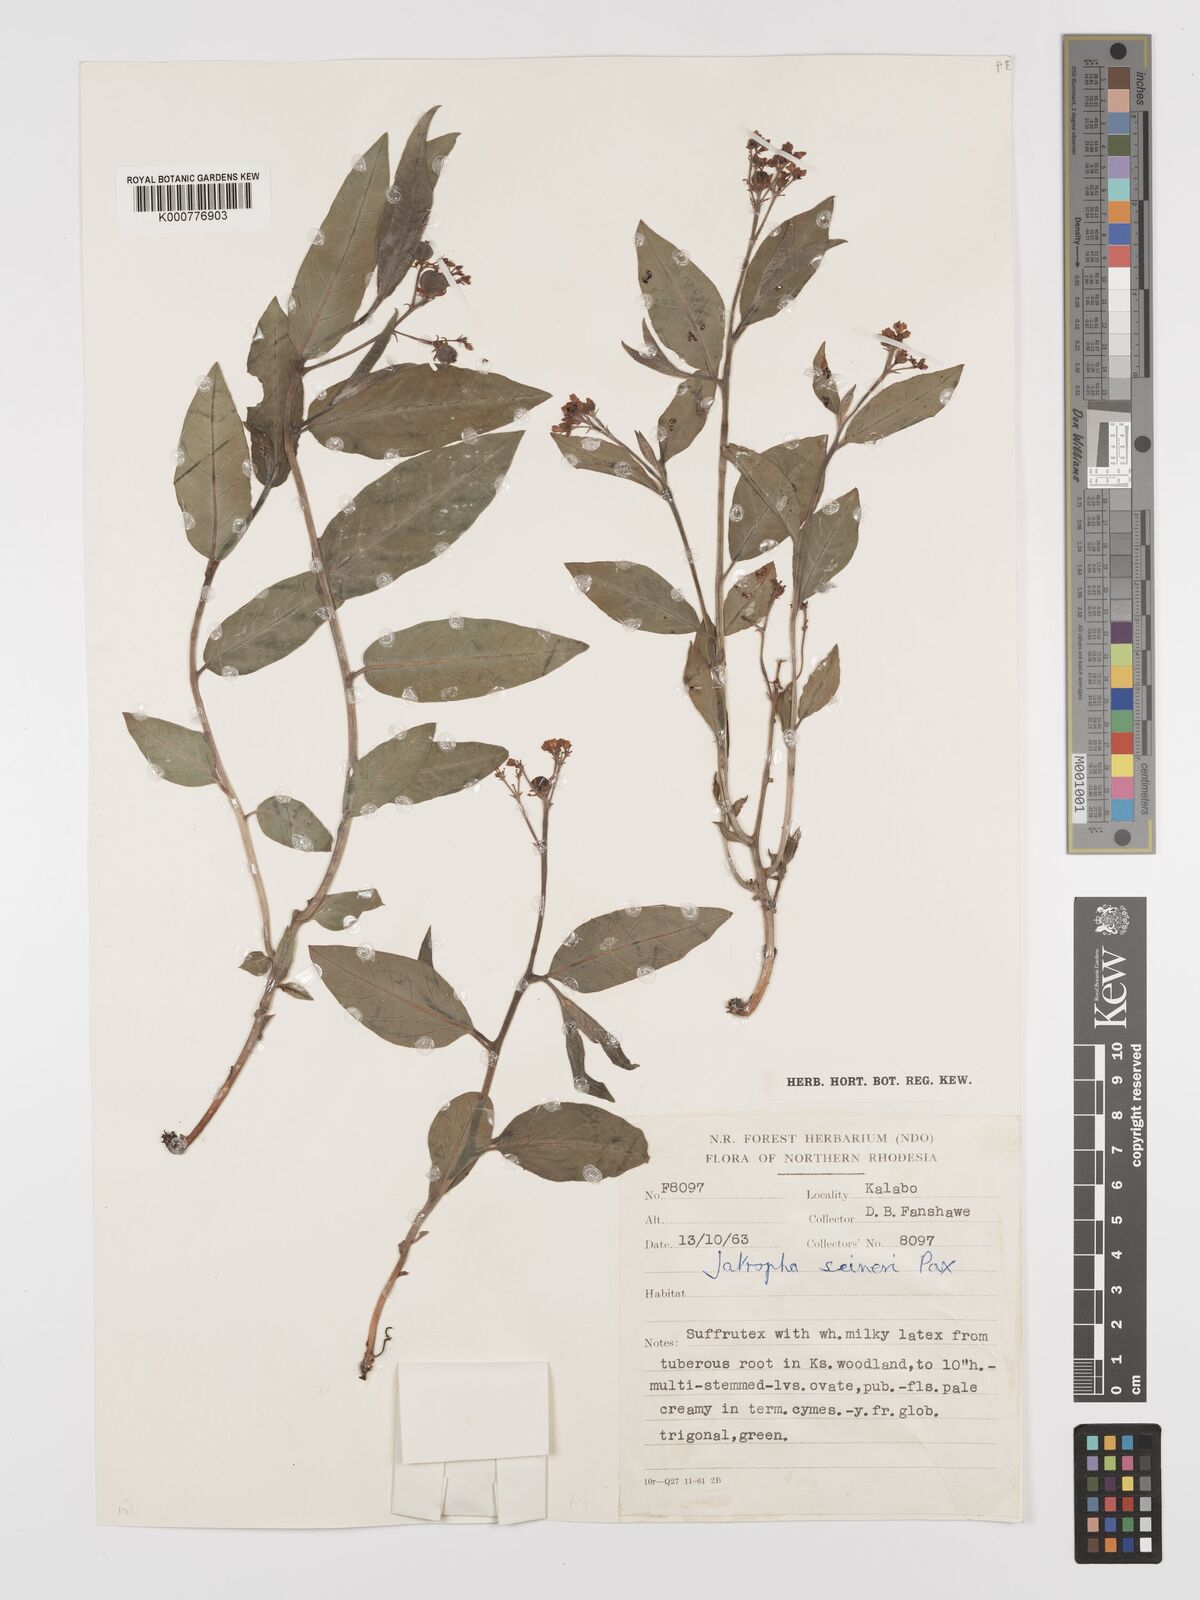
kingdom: Plantae
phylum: Tracheophyta
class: Magnoliopsida
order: Malpighiales
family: Euphorbiaceae
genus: Jatropha
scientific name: Jatropha seineri
